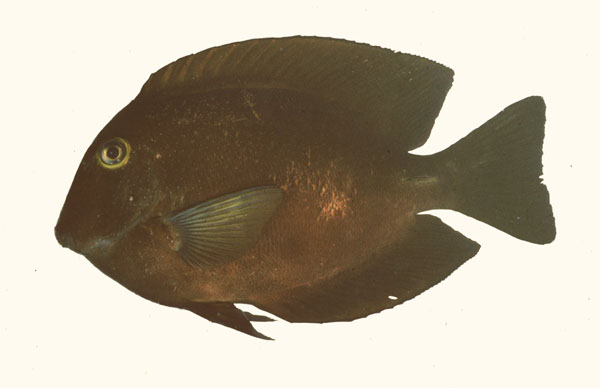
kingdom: Animalia
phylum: Chordata
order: Perciformes
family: Acanthuridae
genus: Ctenochaetus
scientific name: Ctenochaetus truncatus
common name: Indian gold-ring bristle-tooth
